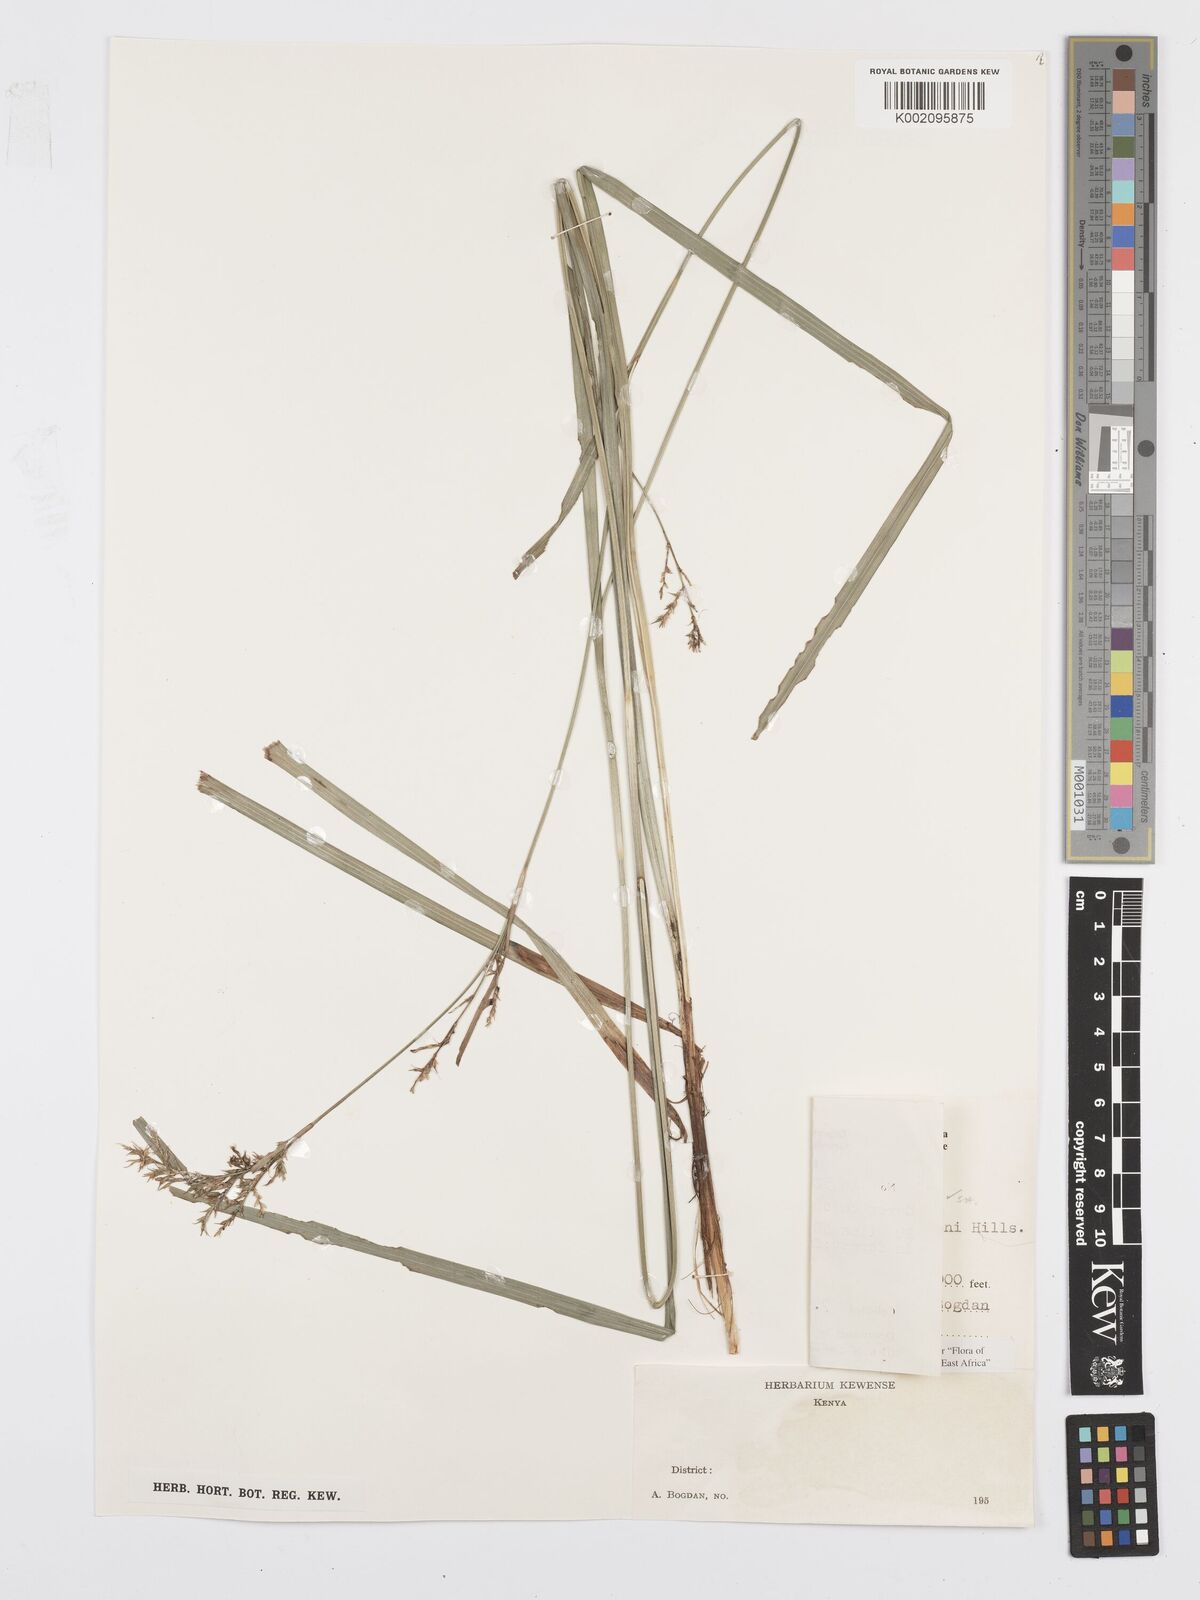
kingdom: Plantae
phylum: Tracheophyta
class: Liliopsida
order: Poales
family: Cyperaceae
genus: Carex
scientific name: Carex chlorosaccus
